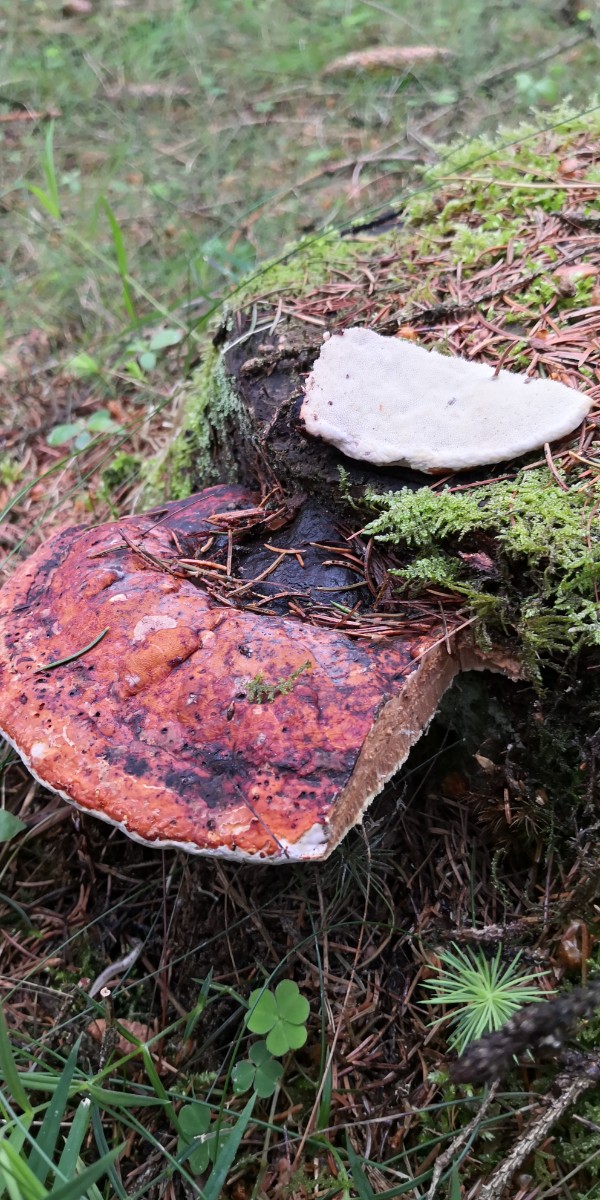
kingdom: Fungi
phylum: Basidiomycota
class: Agaricomycetes
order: Polyporales
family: Fomitopsidaceae
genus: Fomitopsis
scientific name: Fomitopsis pinicola
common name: randbæltet hovporesvamp
